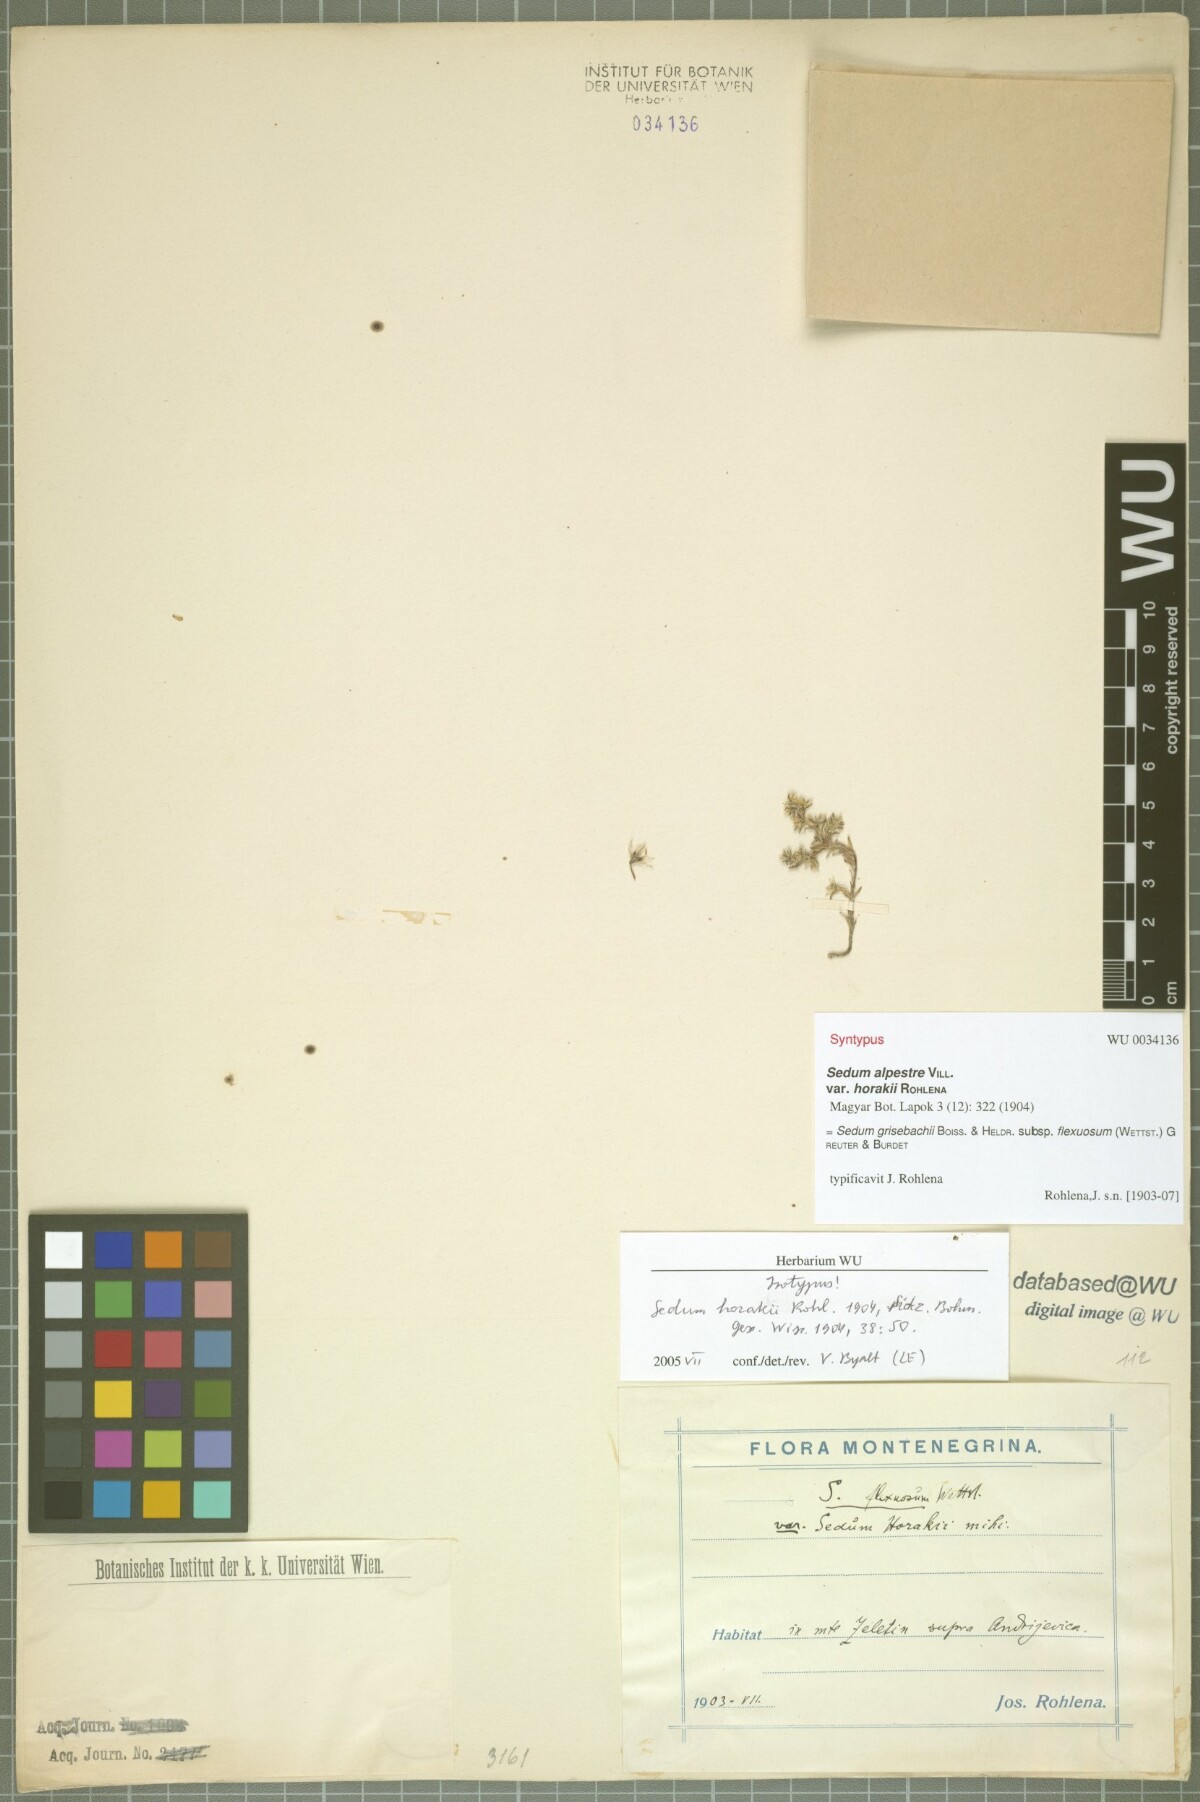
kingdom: Plantae
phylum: Tracheophyta
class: Magnoliopsida
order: Saxifragales
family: Crassulaceae
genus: Sedum
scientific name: Sedum grisebachii
